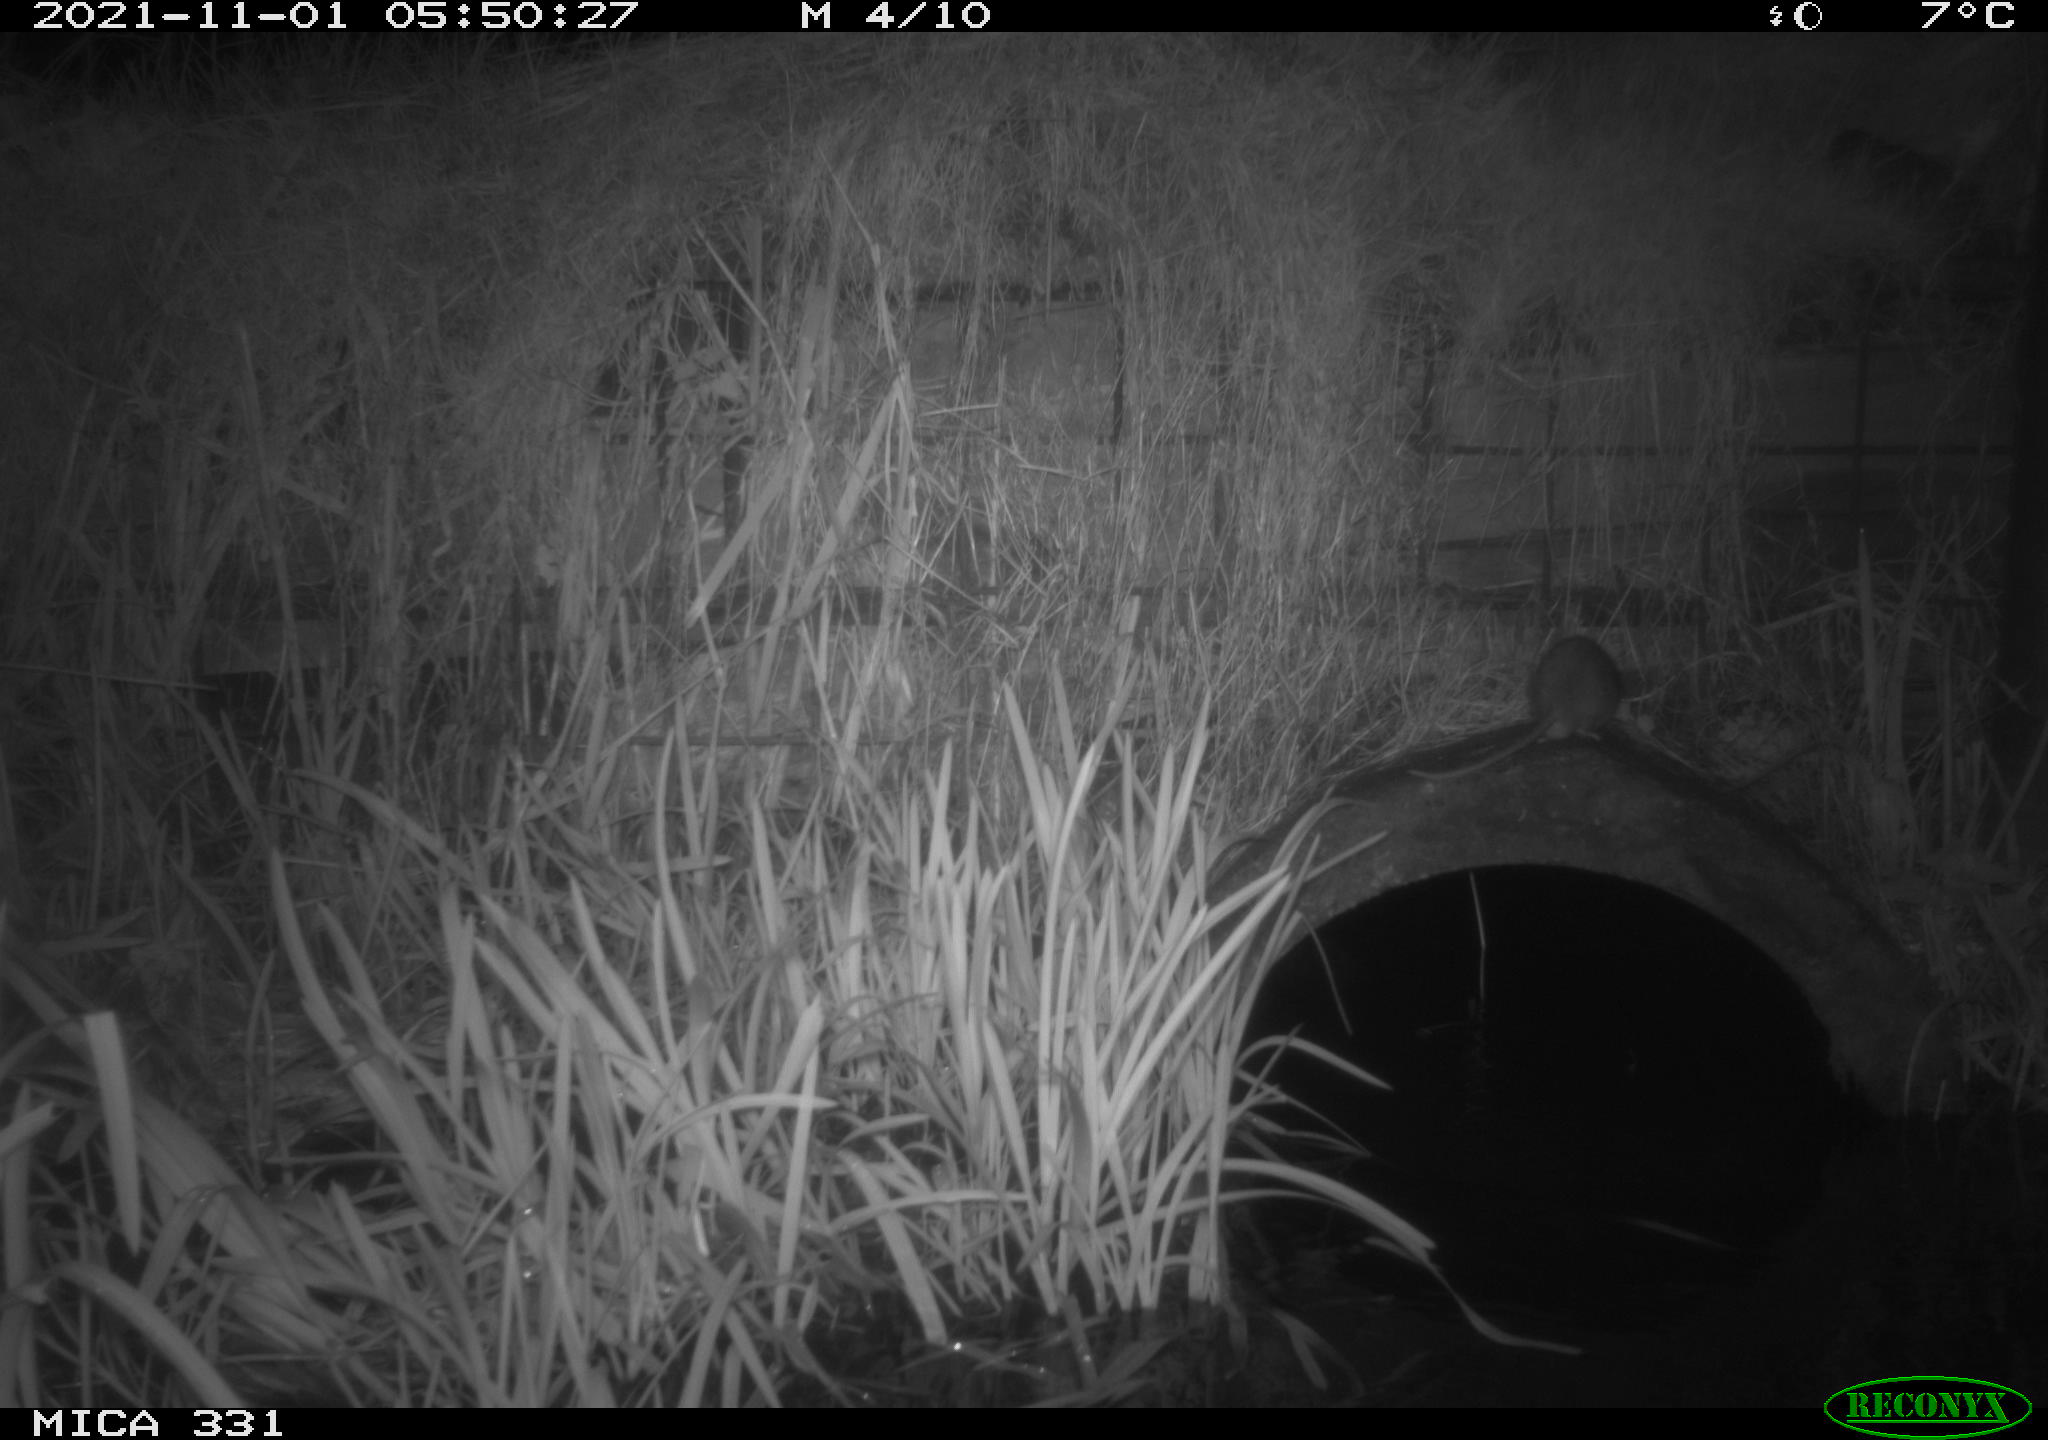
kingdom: Animalia
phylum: Chordata
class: Mammalia
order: Rodentia
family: Muridae
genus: Rattus
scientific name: Rattus norvegicus
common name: Brown rat
